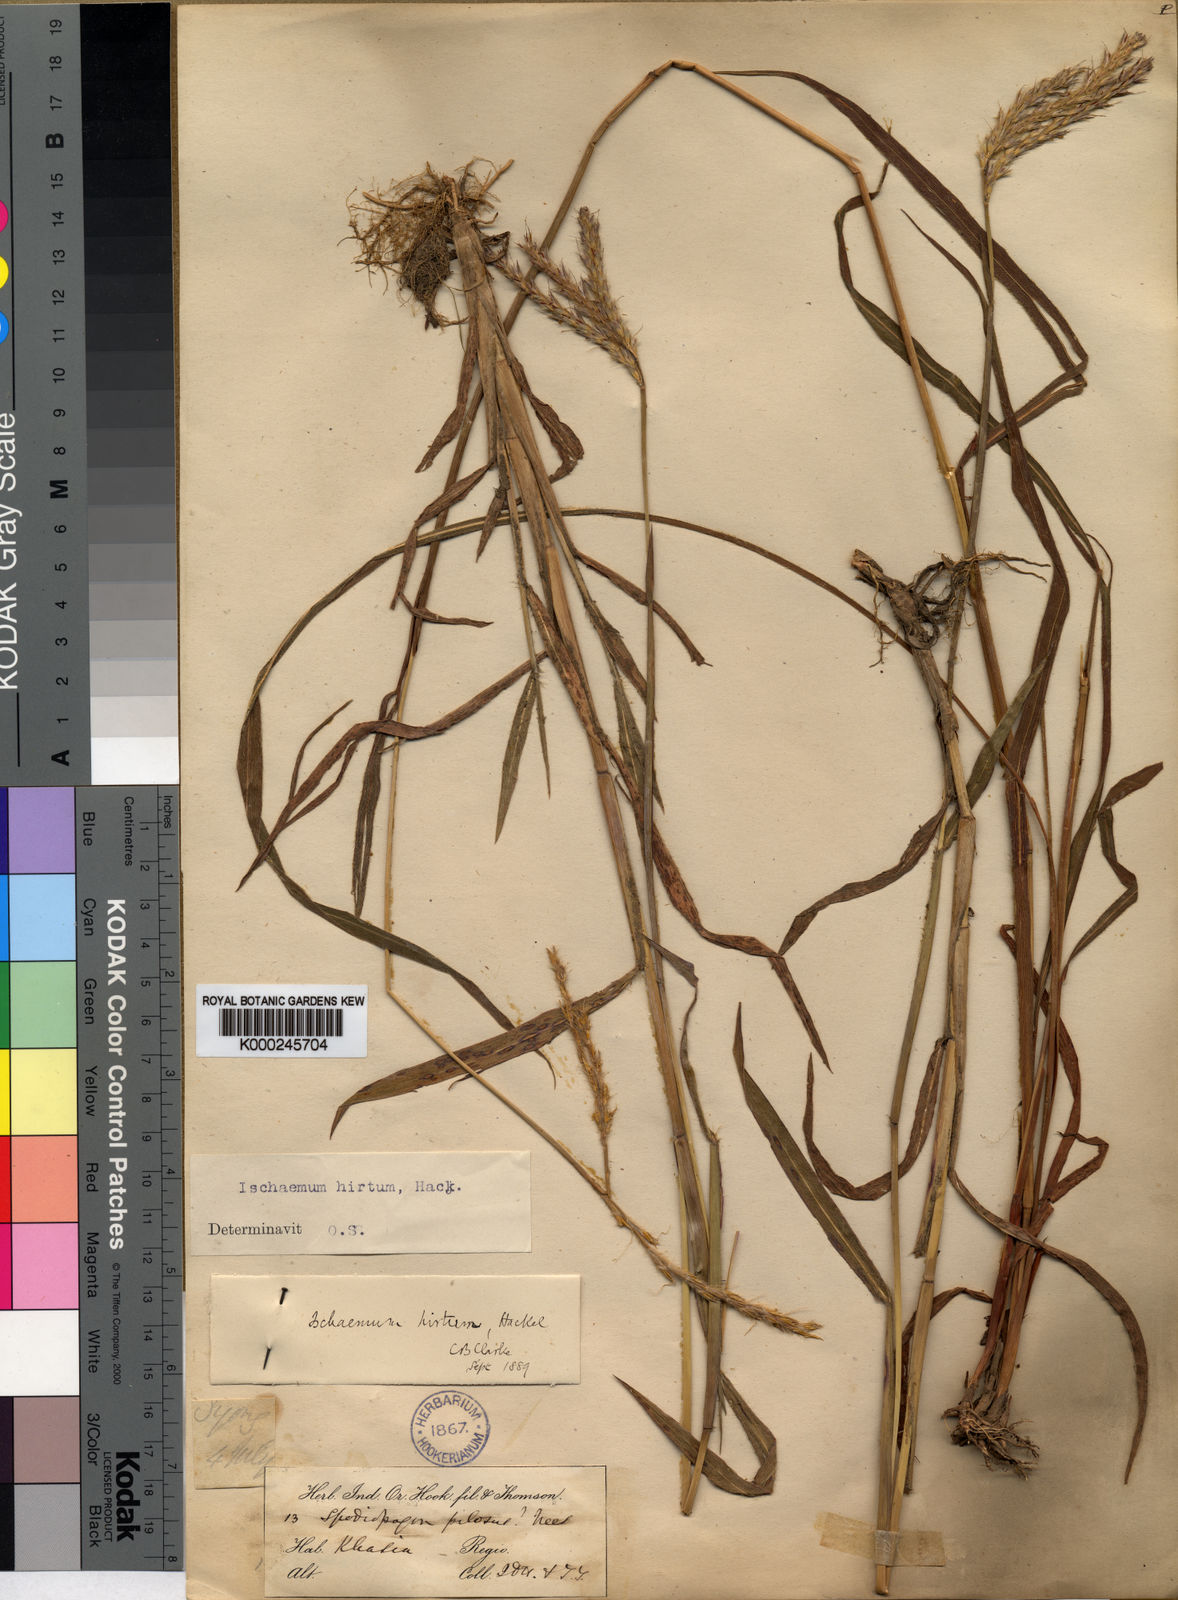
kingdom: Plantae
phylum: Tracheophyta
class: Liliopsida
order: Poales
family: Poaceae
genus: Ischaemum
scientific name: Ischaemum polystachyum
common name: Paddle grass
